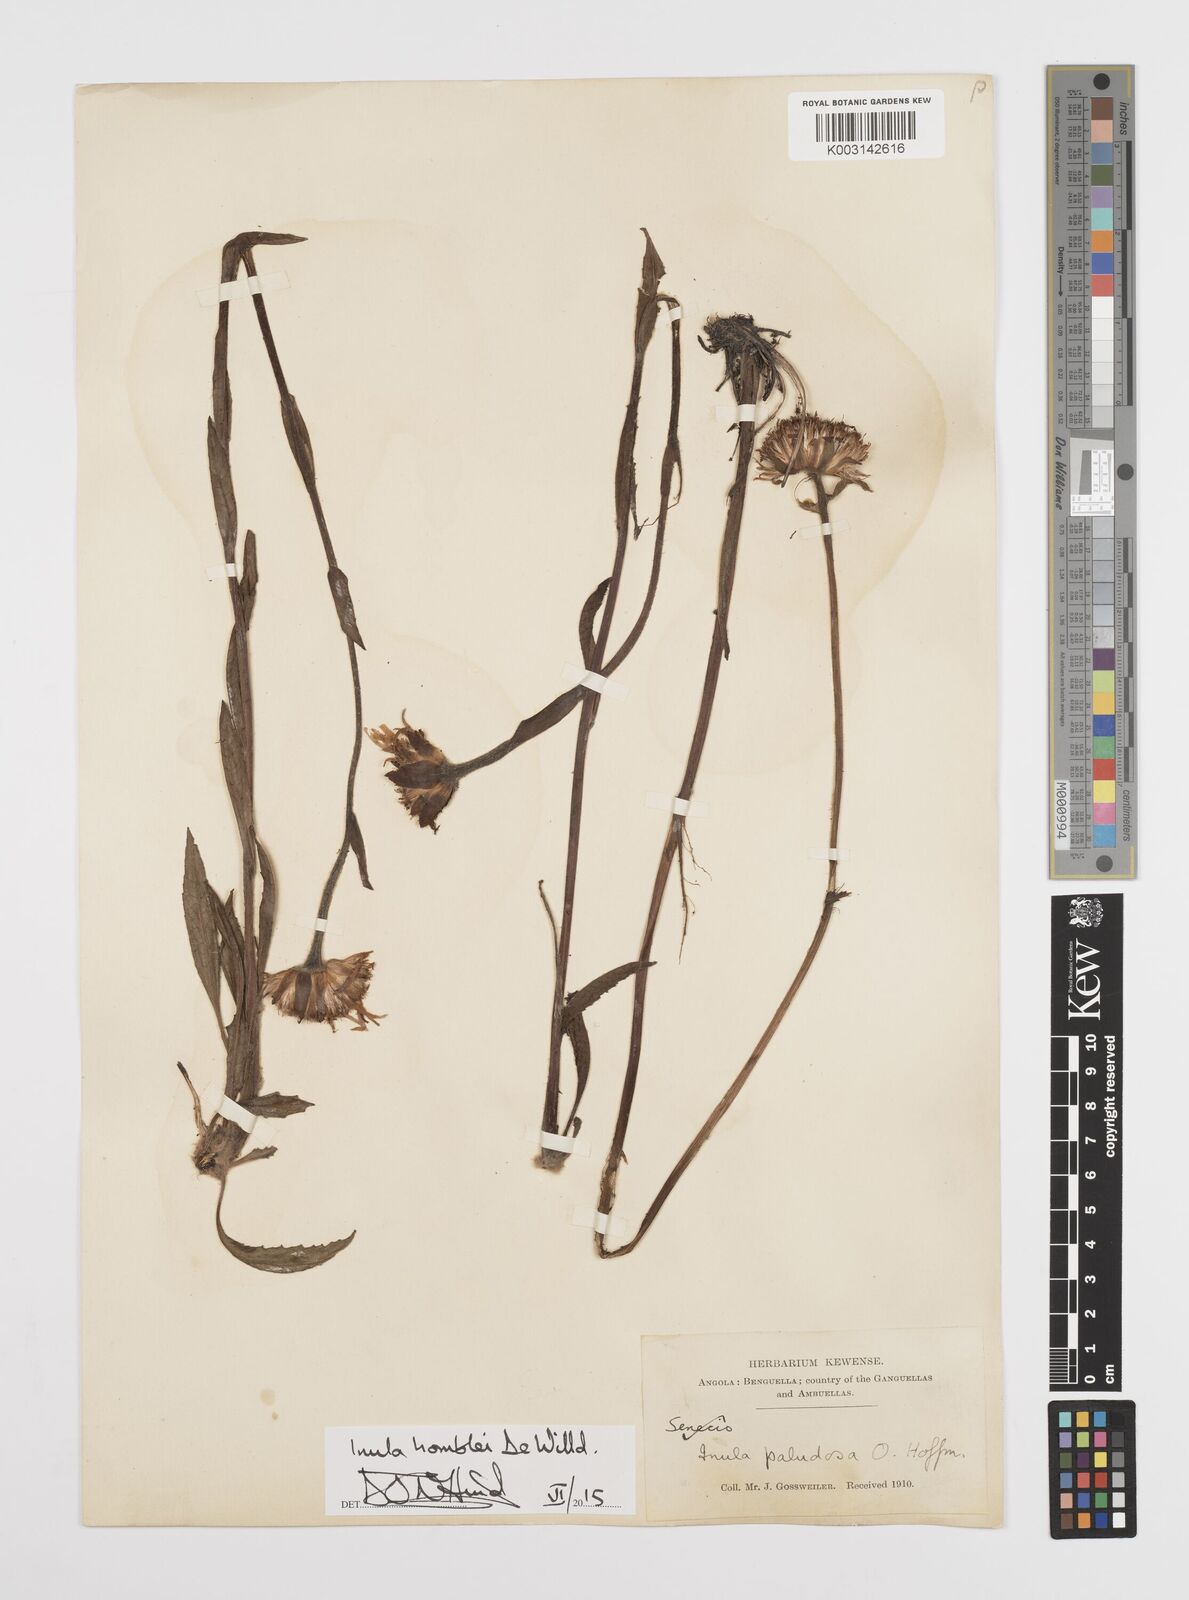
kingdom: Plantae
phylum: Tracheophyta
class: Magnoliopsida
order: Asterales
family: Asteraceae
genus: Inula
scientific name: Inula paludosa
